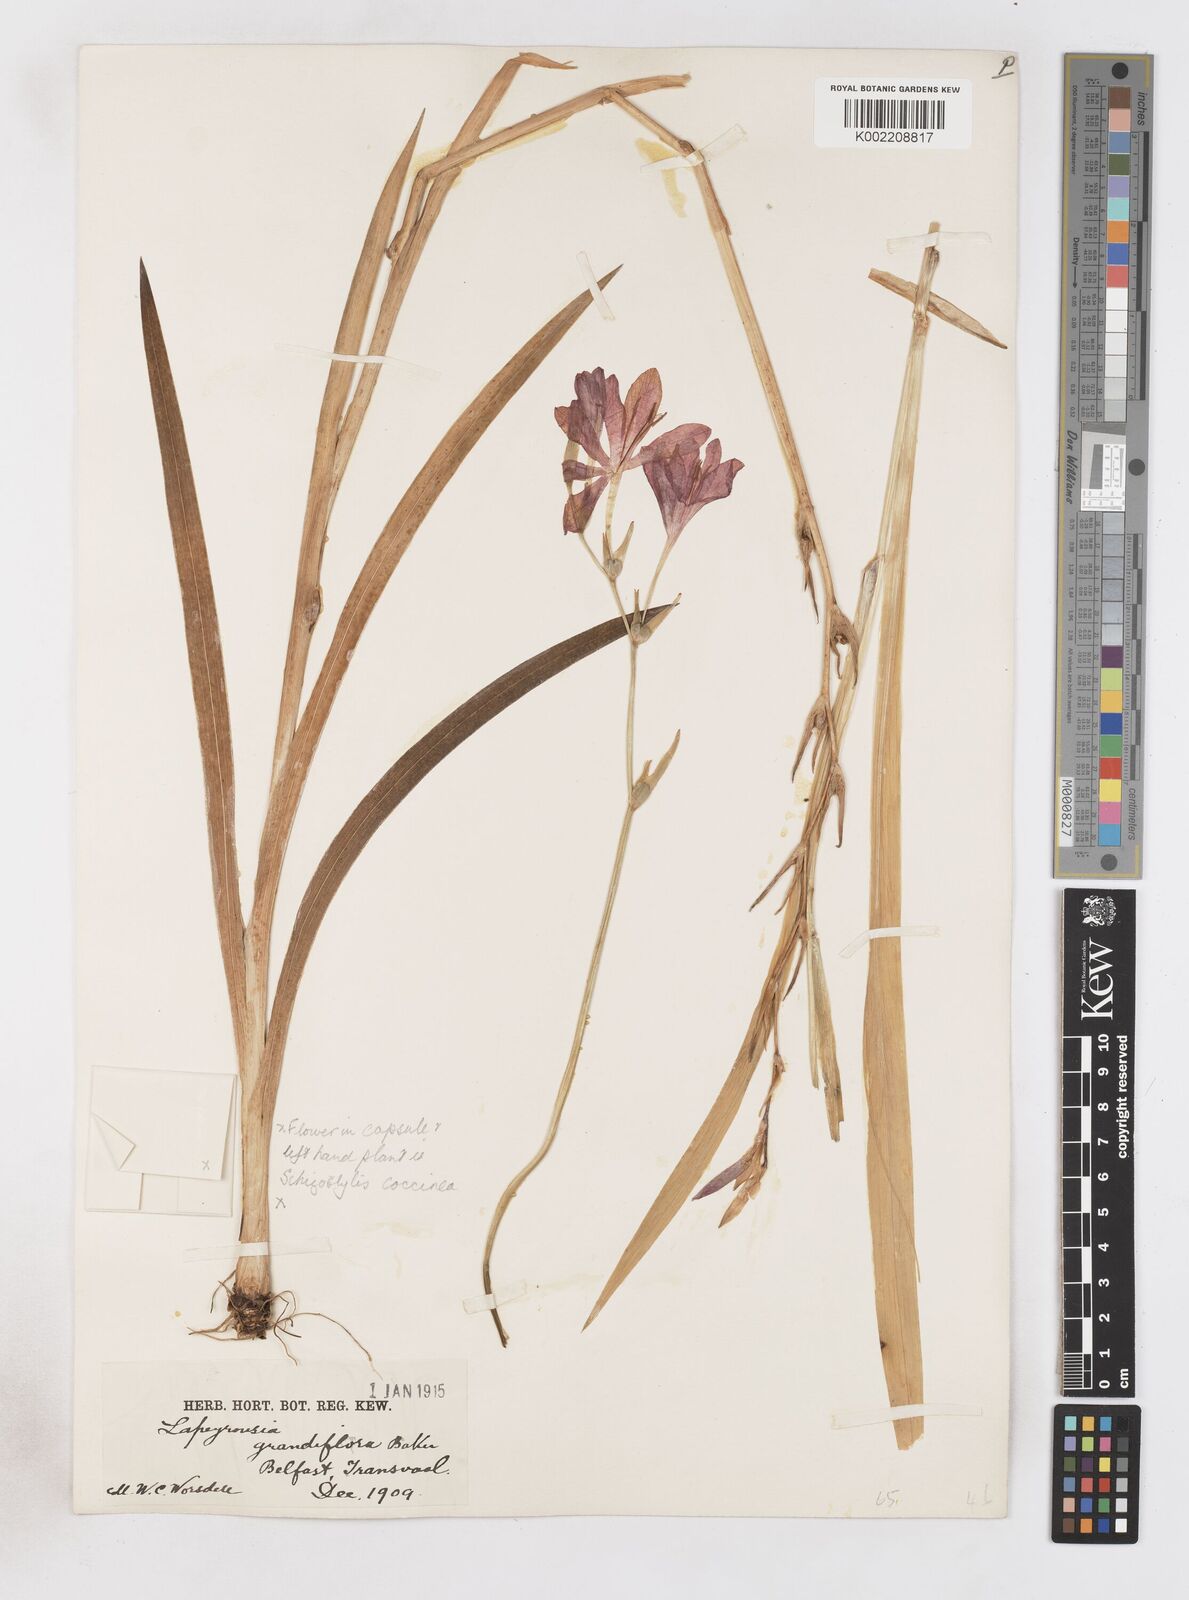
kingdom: Plantae
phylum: Tracheophyta
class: Liliopsida
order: Asparagales
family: Iridaceae
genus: Freesia
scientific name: Freesia grandiflora
